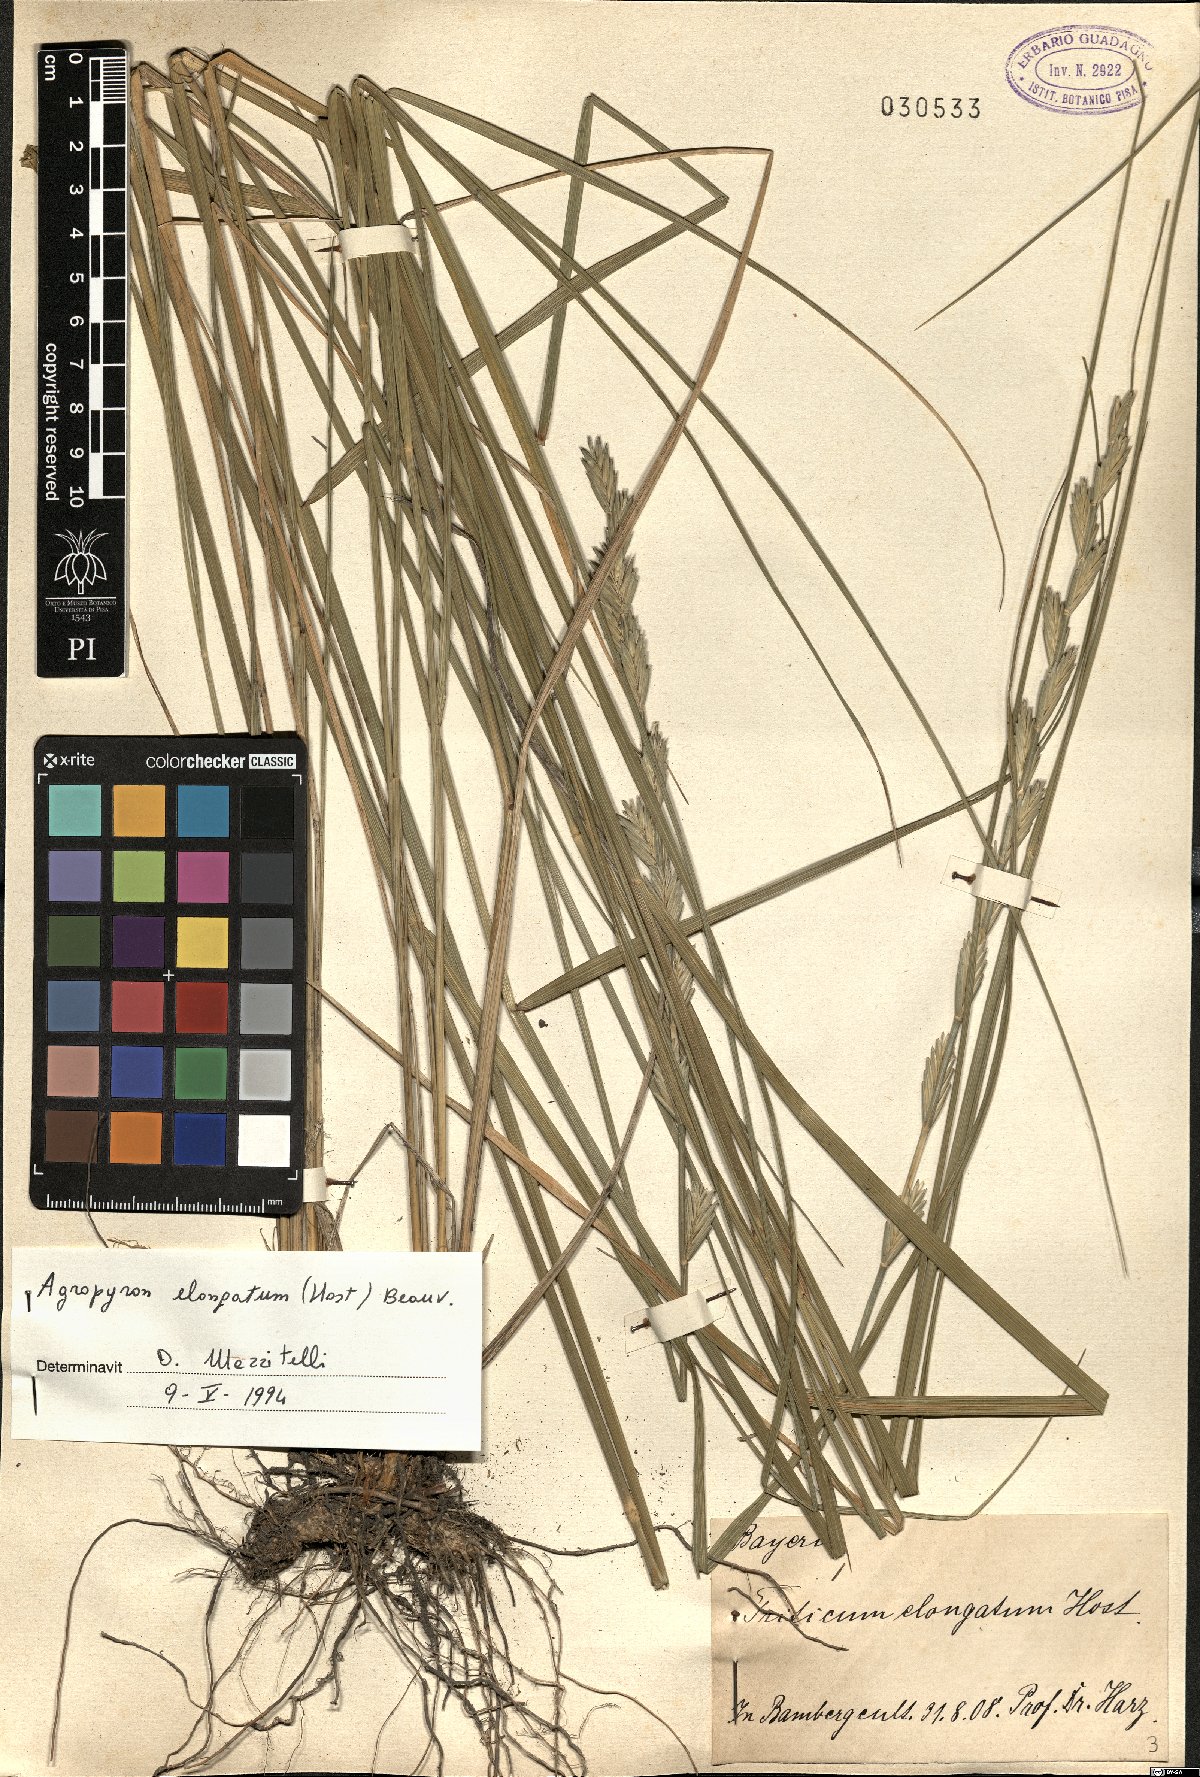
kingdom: Plantae
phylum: Tracheophyta
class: Liliopsida
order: Poales
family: Poaceae
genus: Thinopyrum
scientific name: Thinopyrum elongatum
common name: Tall wheatgrass
